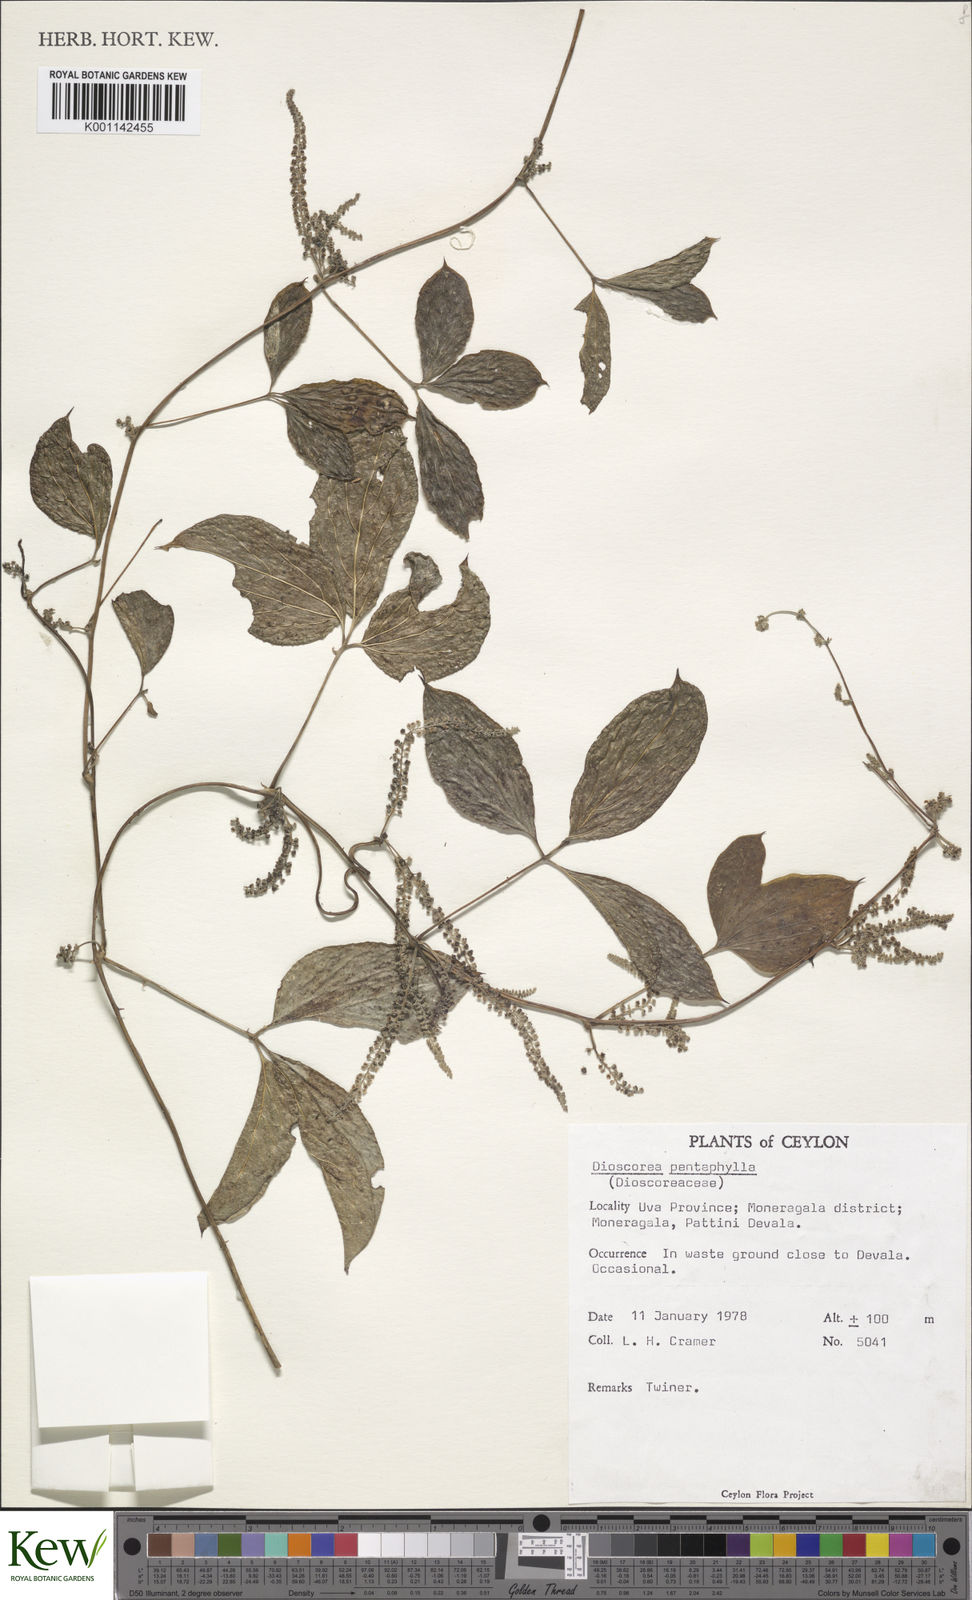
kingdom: Plantae
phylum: Tracheophyta
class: Liliopsida
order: Dioscoreales
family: Dioscoreaceae
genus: Dioscorea
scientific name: Dioscorea pentaphylla
